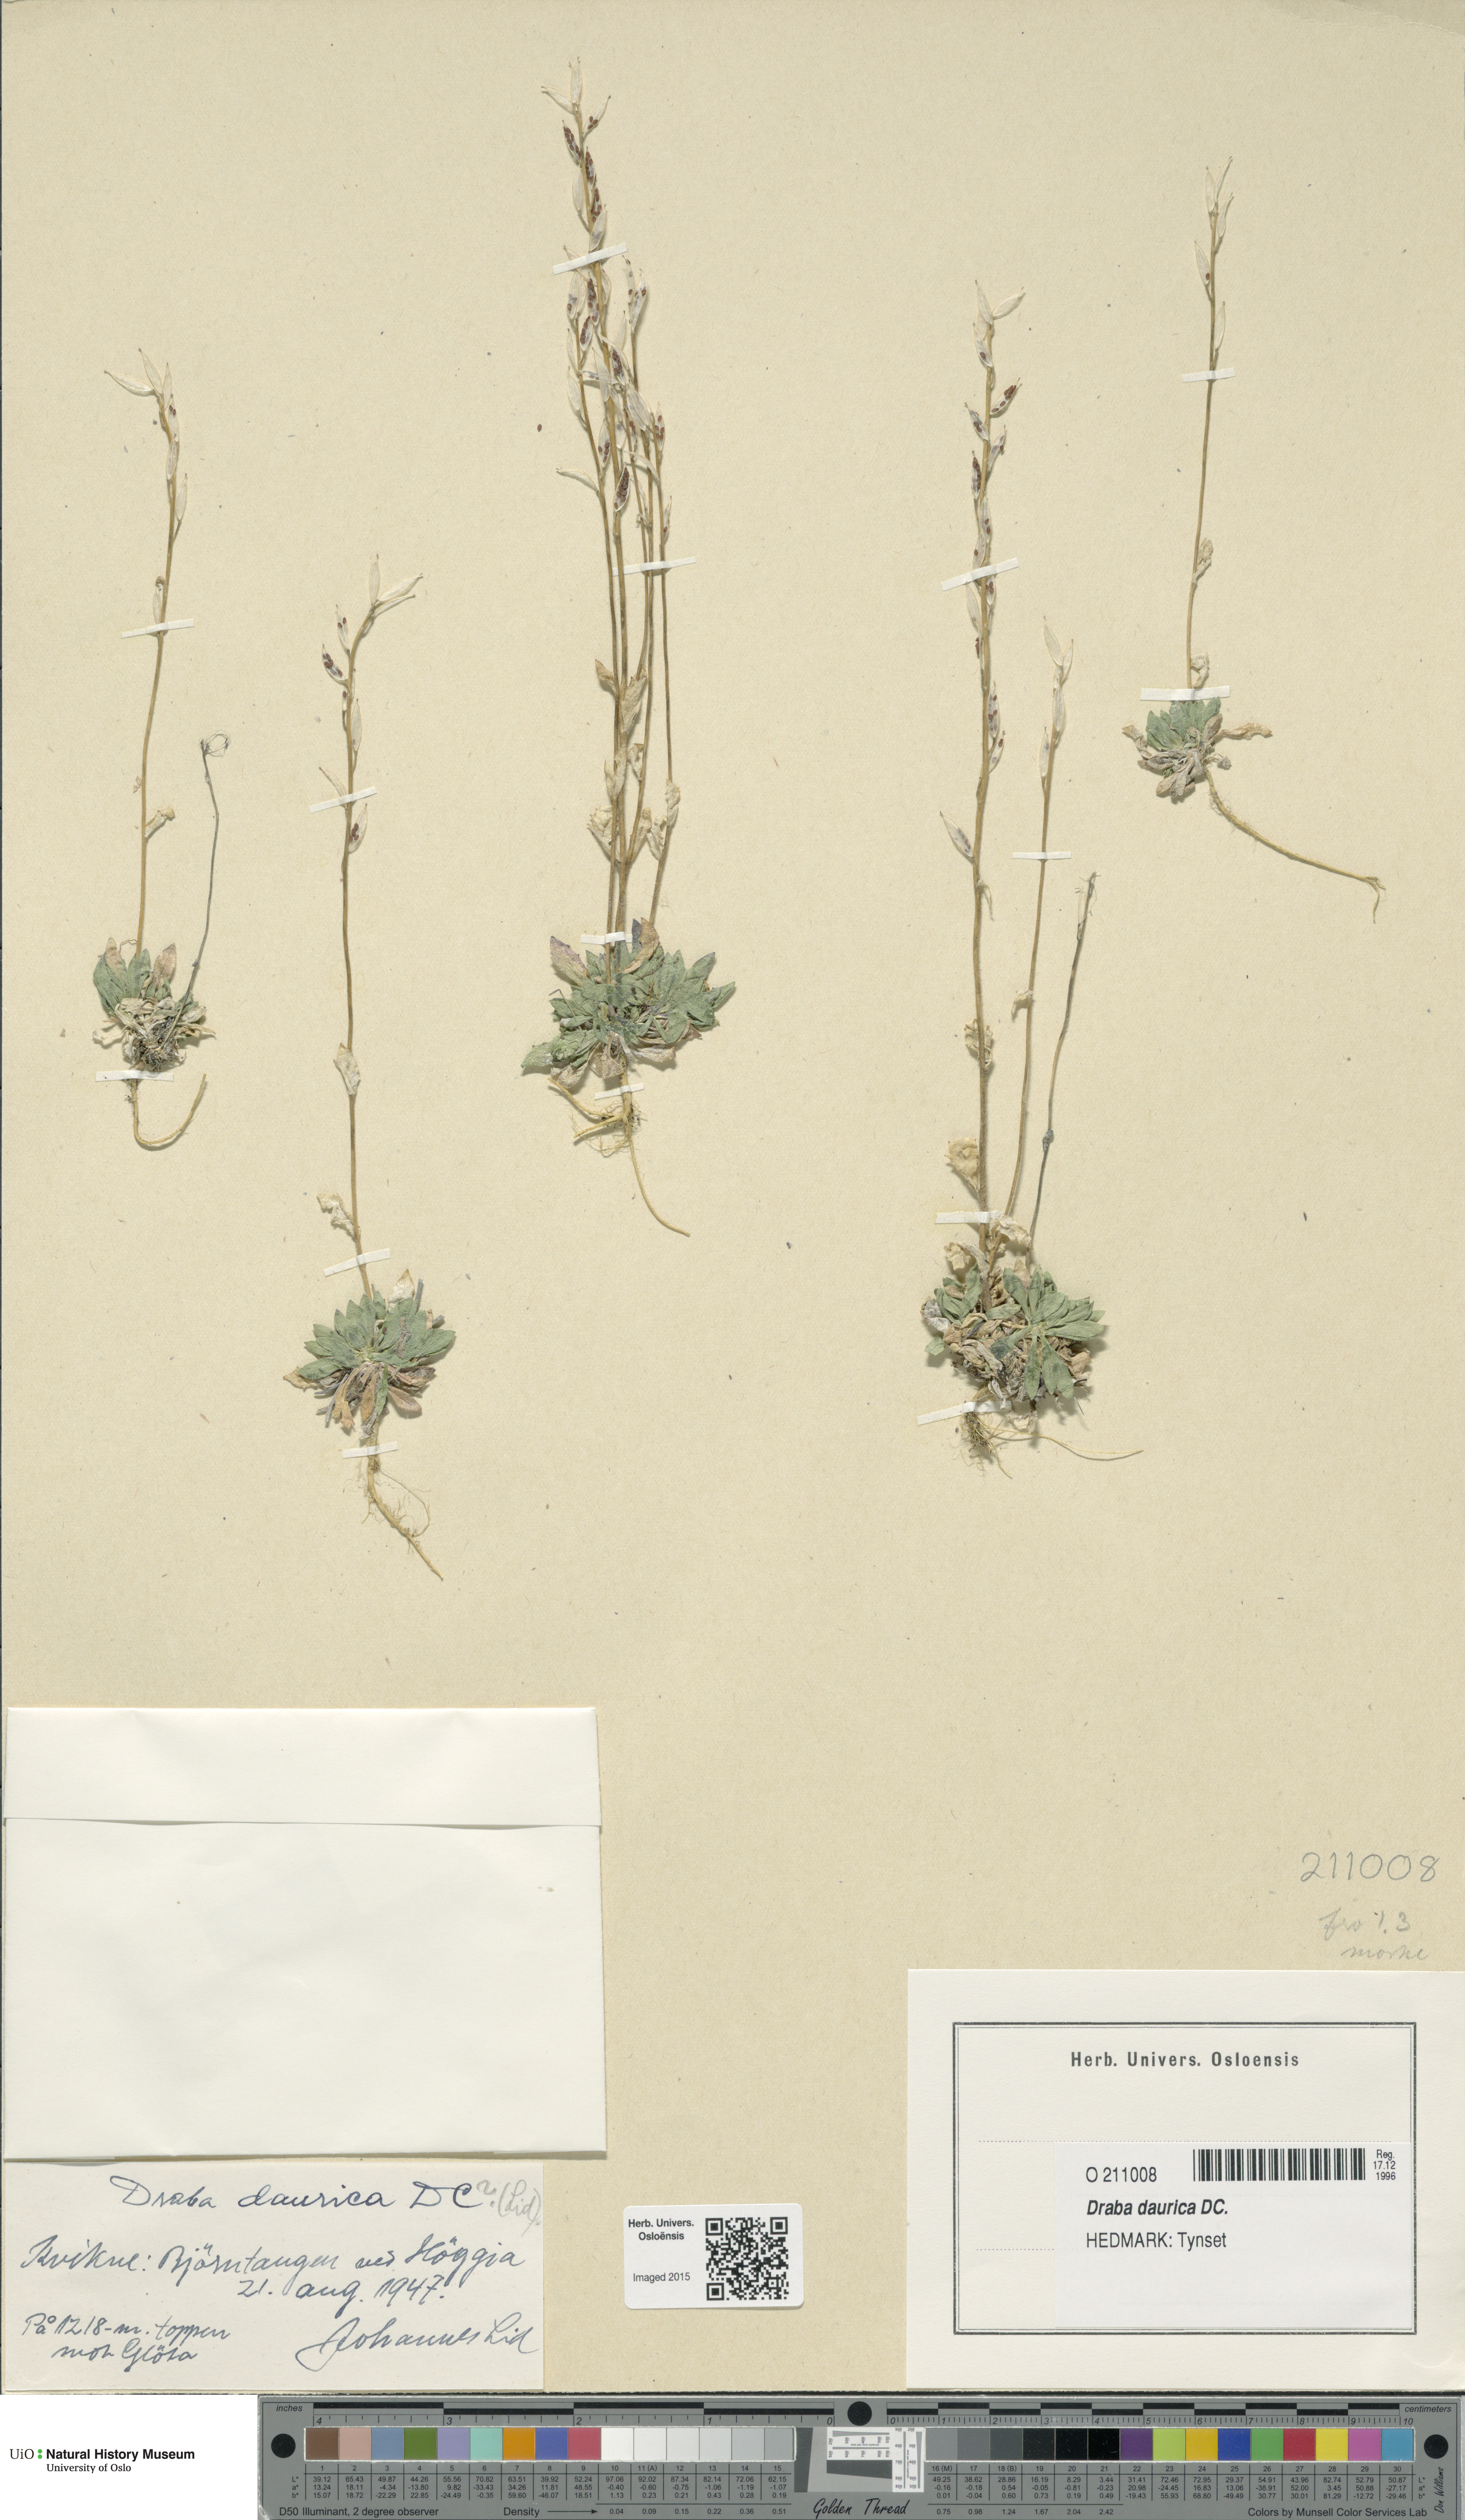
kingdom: Plantae
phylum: Tracheophyta
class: Magnoliopsida
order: Brassicales
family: Brassicaceae
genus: Draba
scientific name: Draba glabella
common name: Glaucous draba
